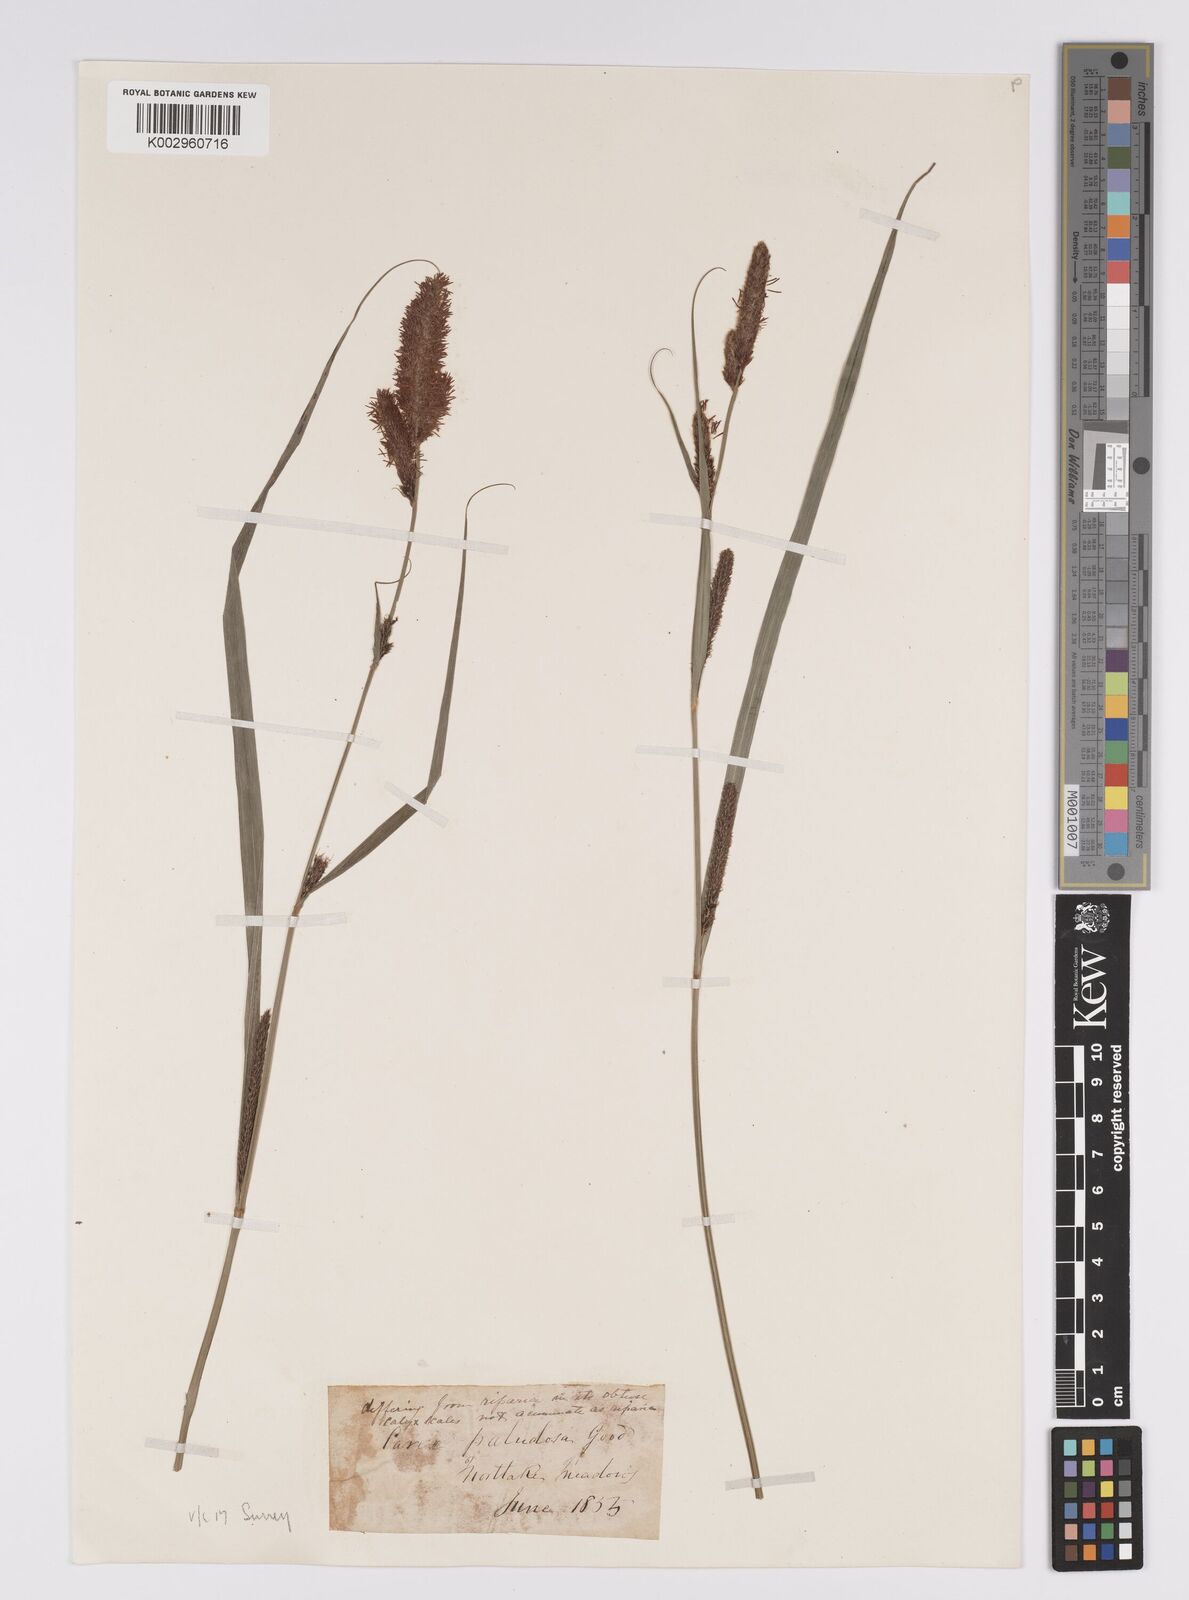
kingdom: Plantae
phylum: Tracheophyta
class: Liliopsida
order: Poales
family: Cyperaceae
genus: Carex
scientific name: Carex acutiformis
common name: Lesser pond-sedge
